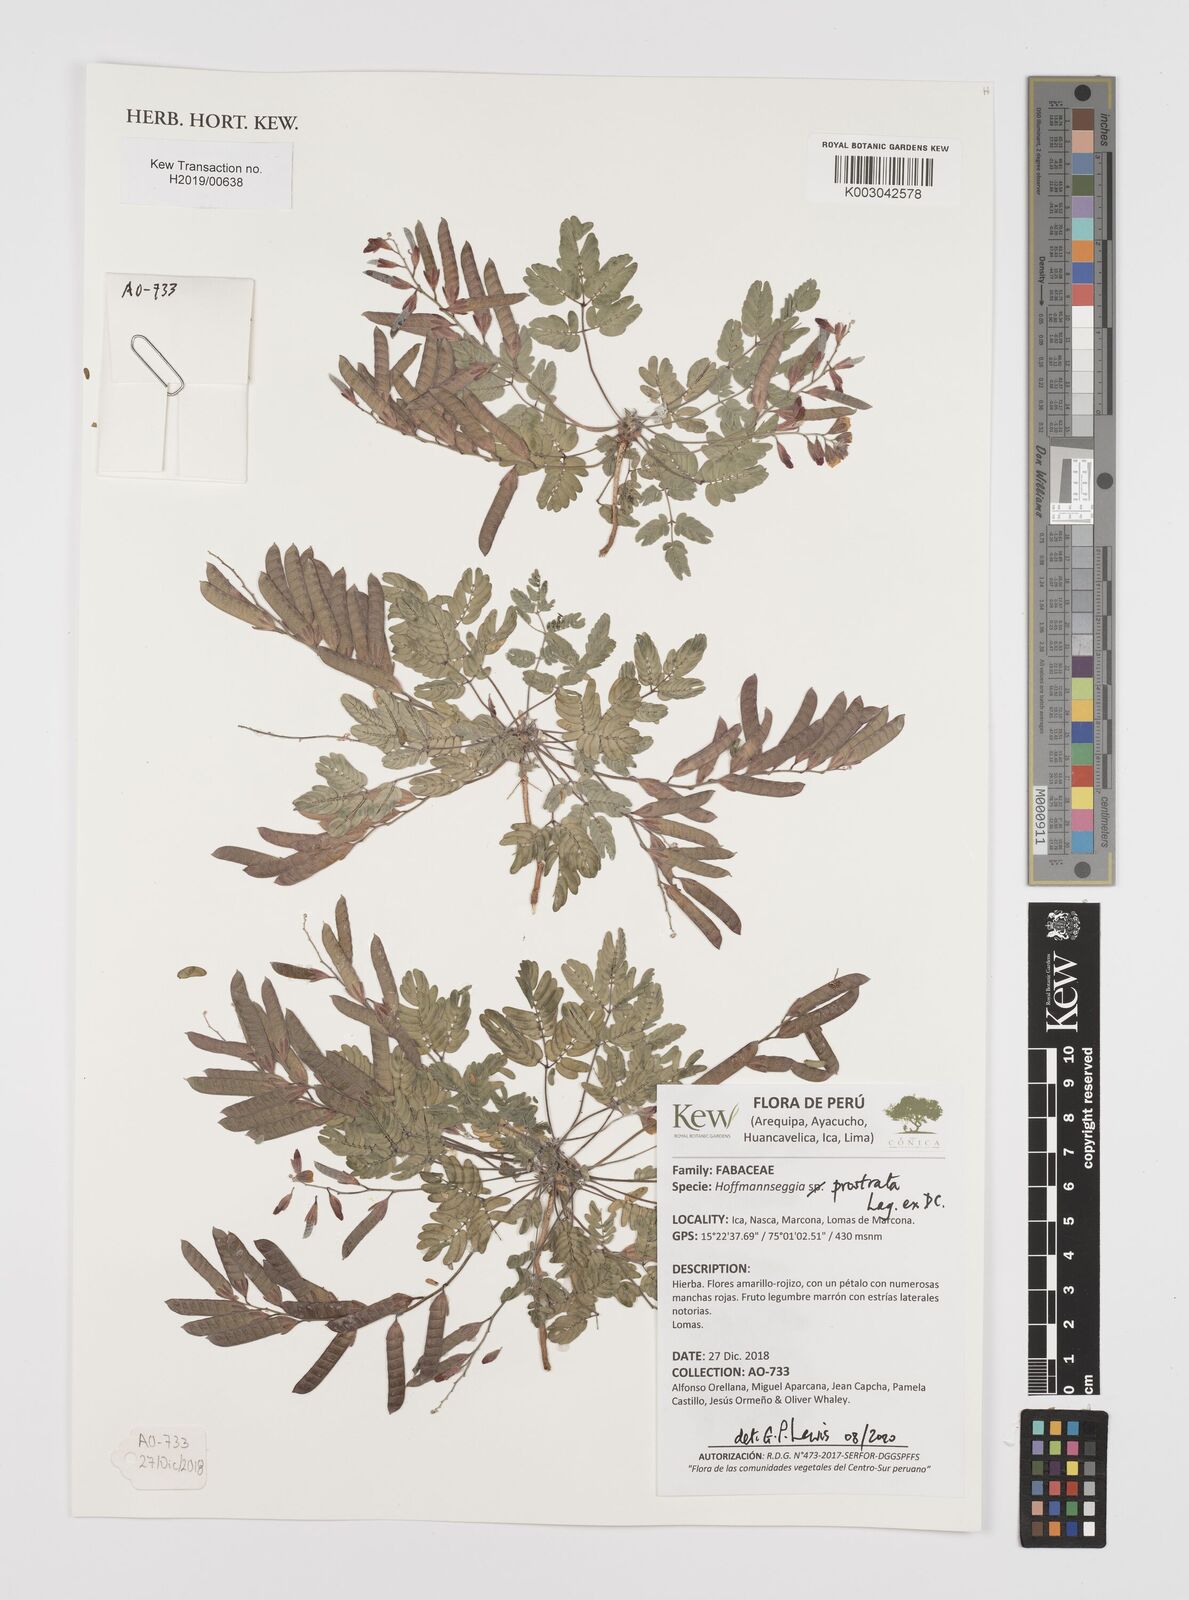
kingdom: Plantae
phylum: Tracheophyta
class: Magnoliopsida
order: Fabales
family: Fabaceae
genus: Hoffmannseggia
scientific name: Hoffmannseggia prostrata
